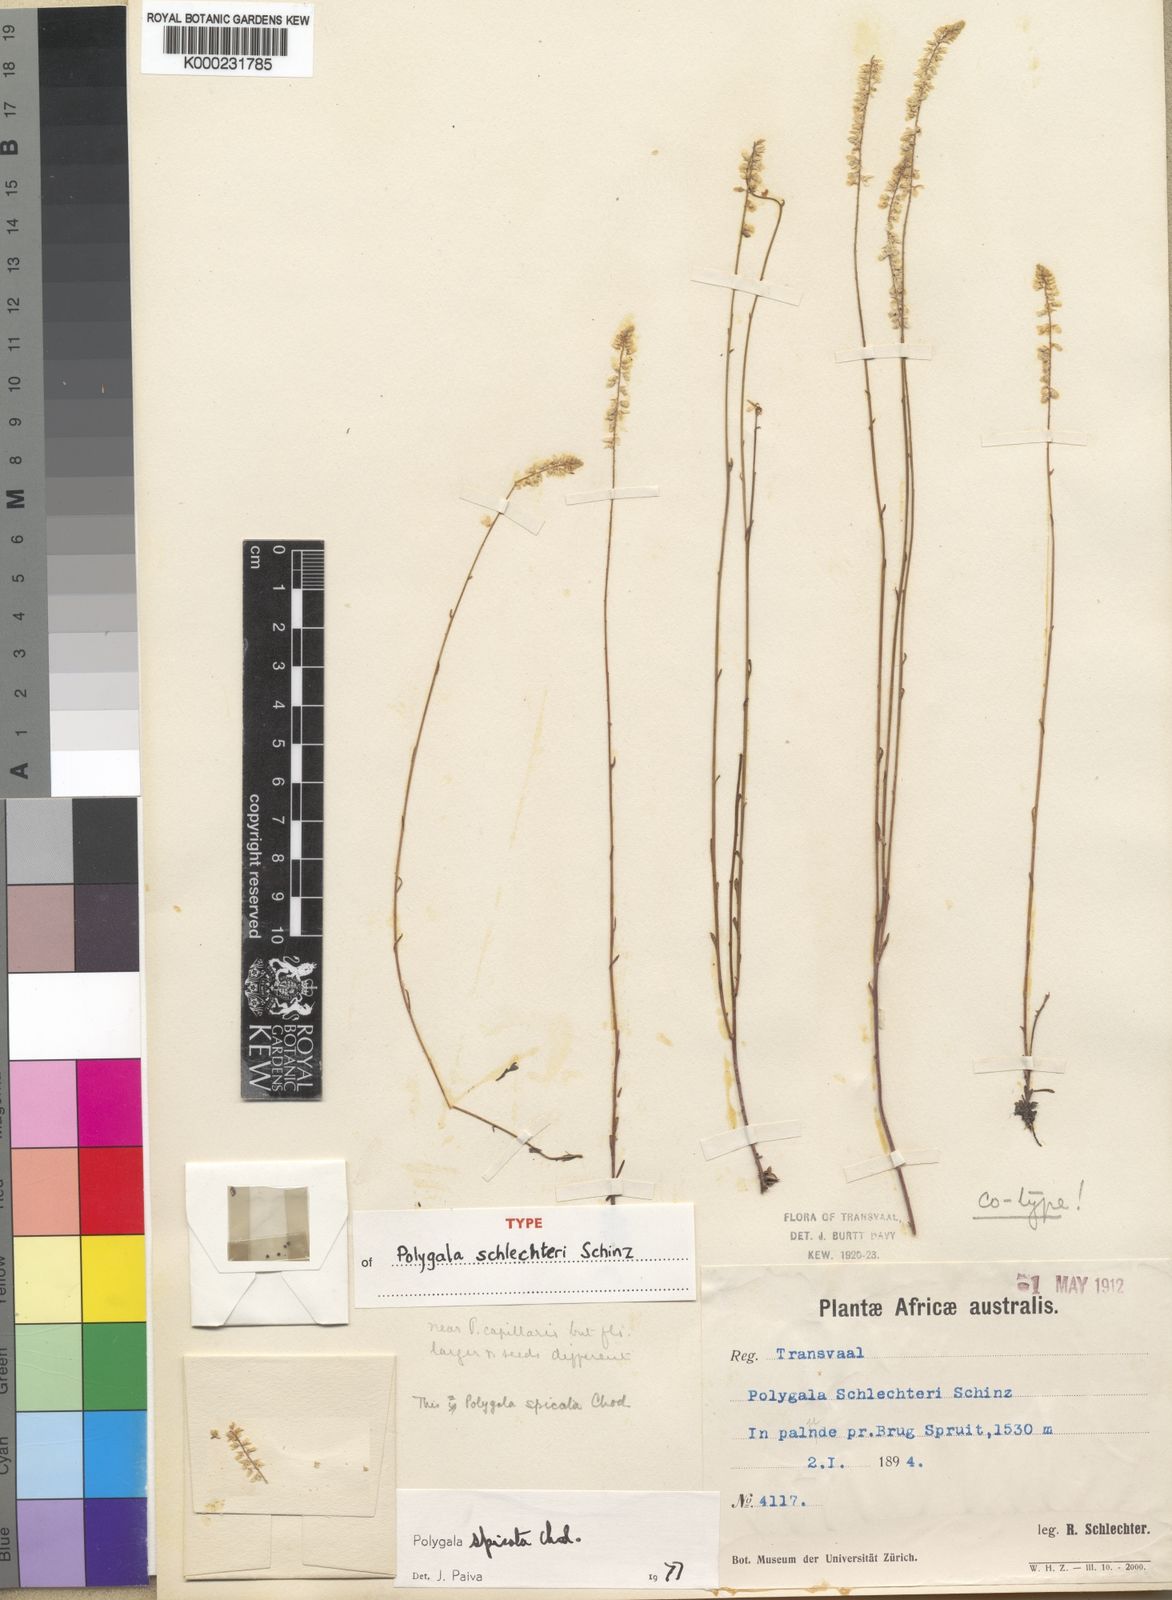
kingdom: Plantae
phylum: Tracheophyta
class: Magnoliopsida
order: Fabales
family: Polygalaceae
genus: Polygala
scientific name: Polygala spicata
